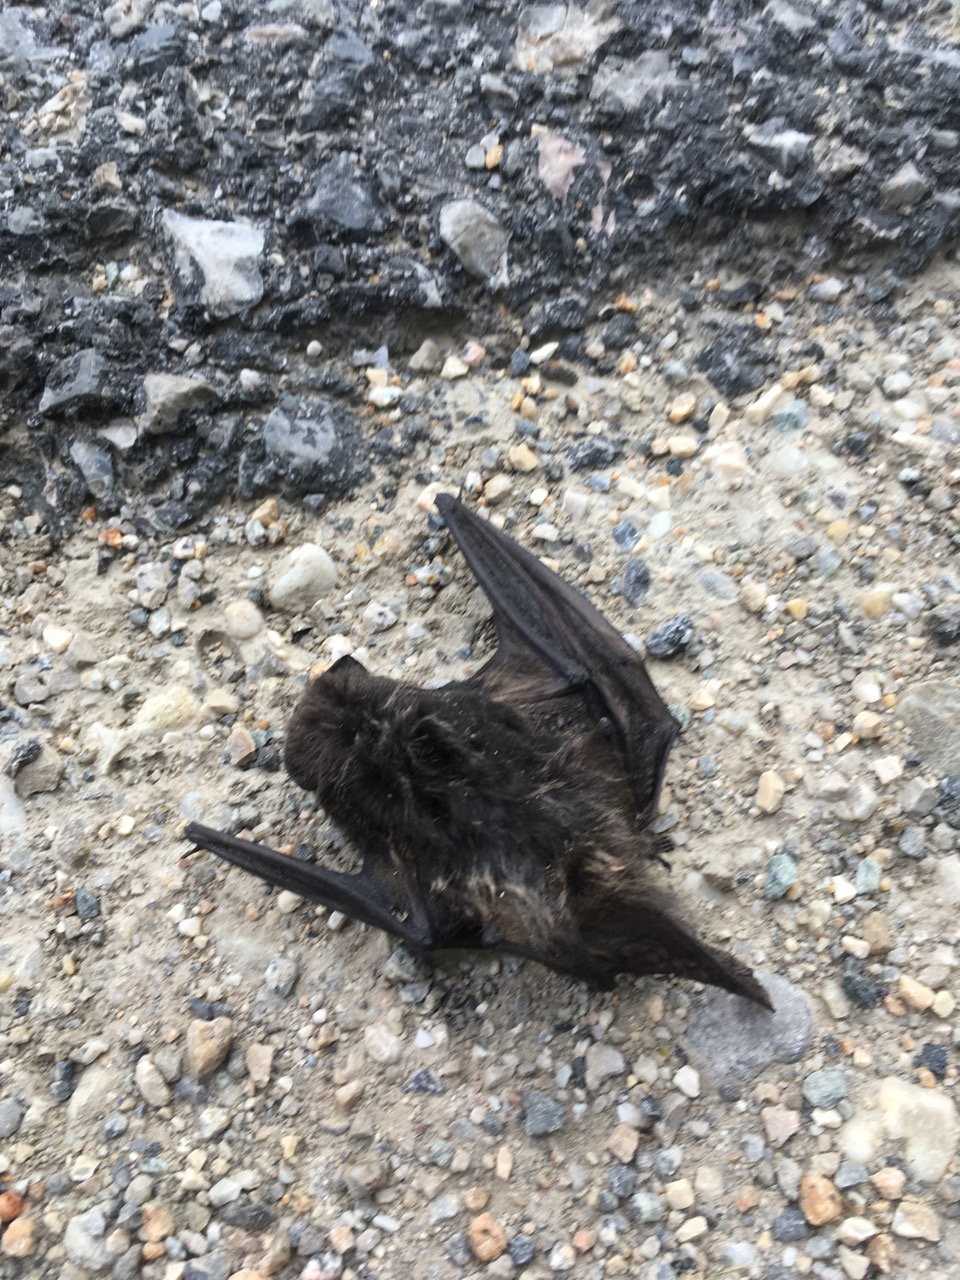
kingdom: Animalia
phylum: Chordata
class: Mammalia
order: Chiroptera
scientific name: Chiroptera
